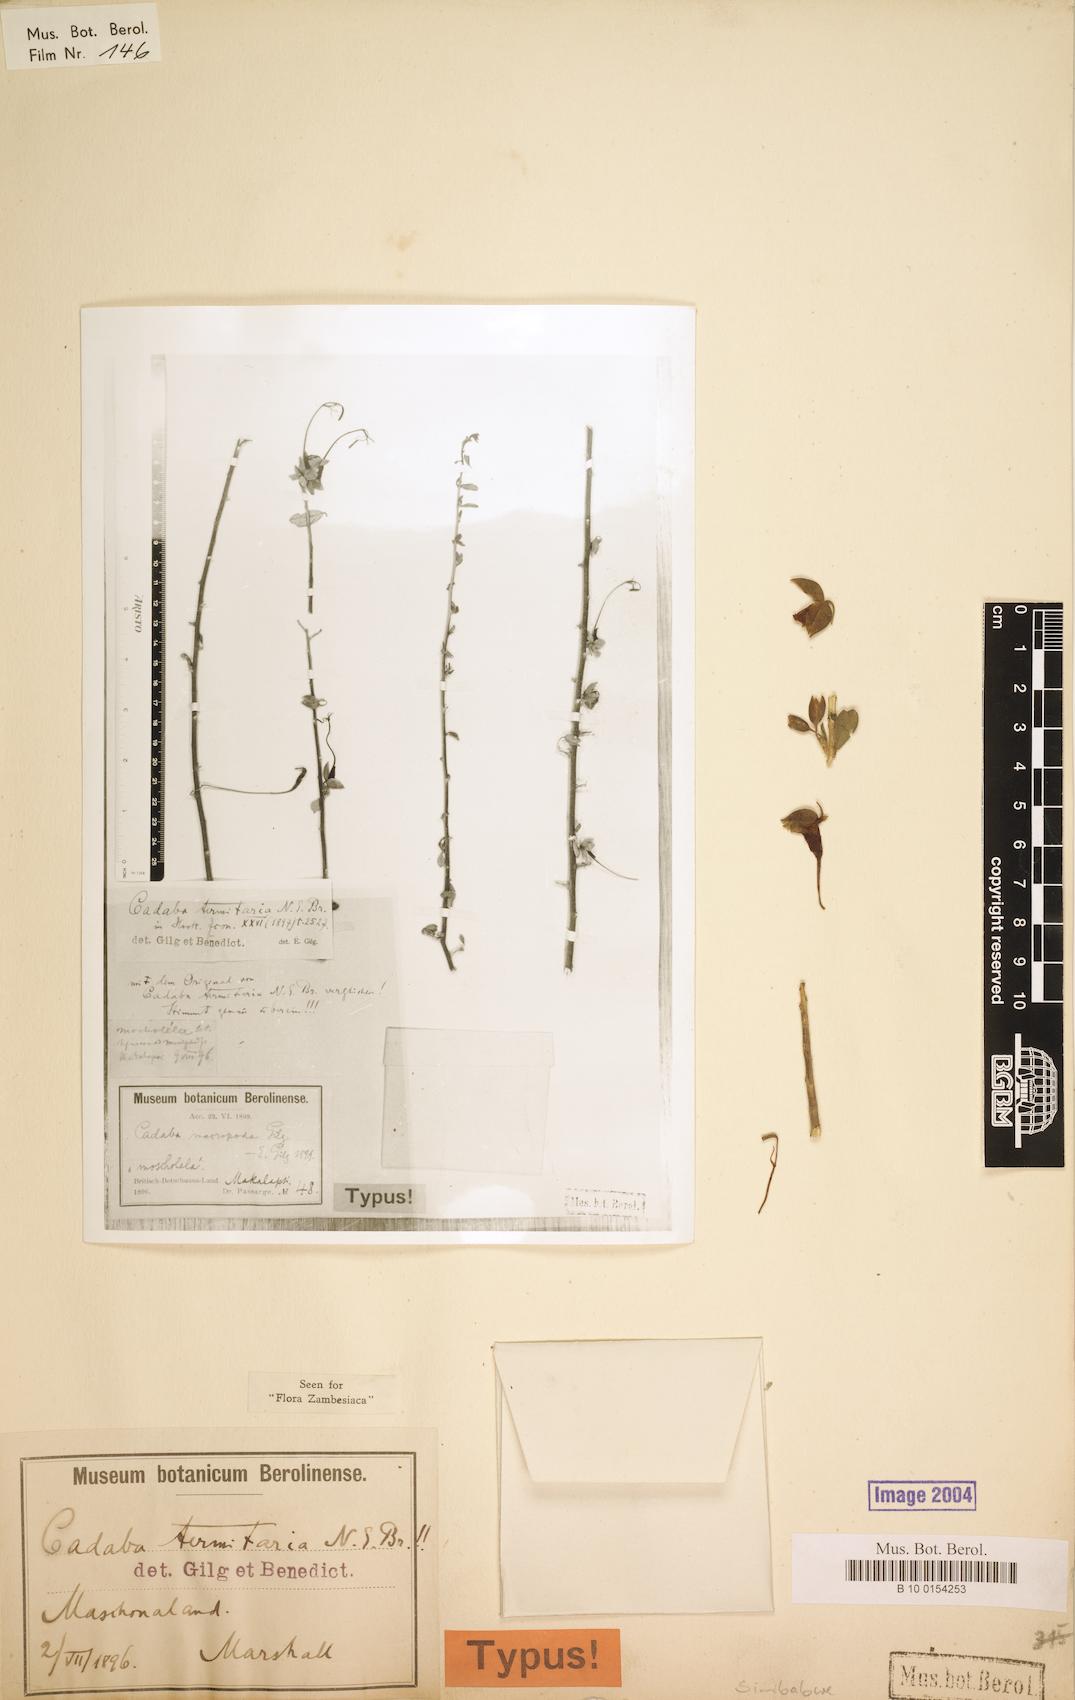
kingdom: Plantae
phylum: Tracheophyta
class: Magnoliopsida
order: Brassicales
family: Capparaceae
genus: Cadaba
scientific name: Cadaba termitaria
